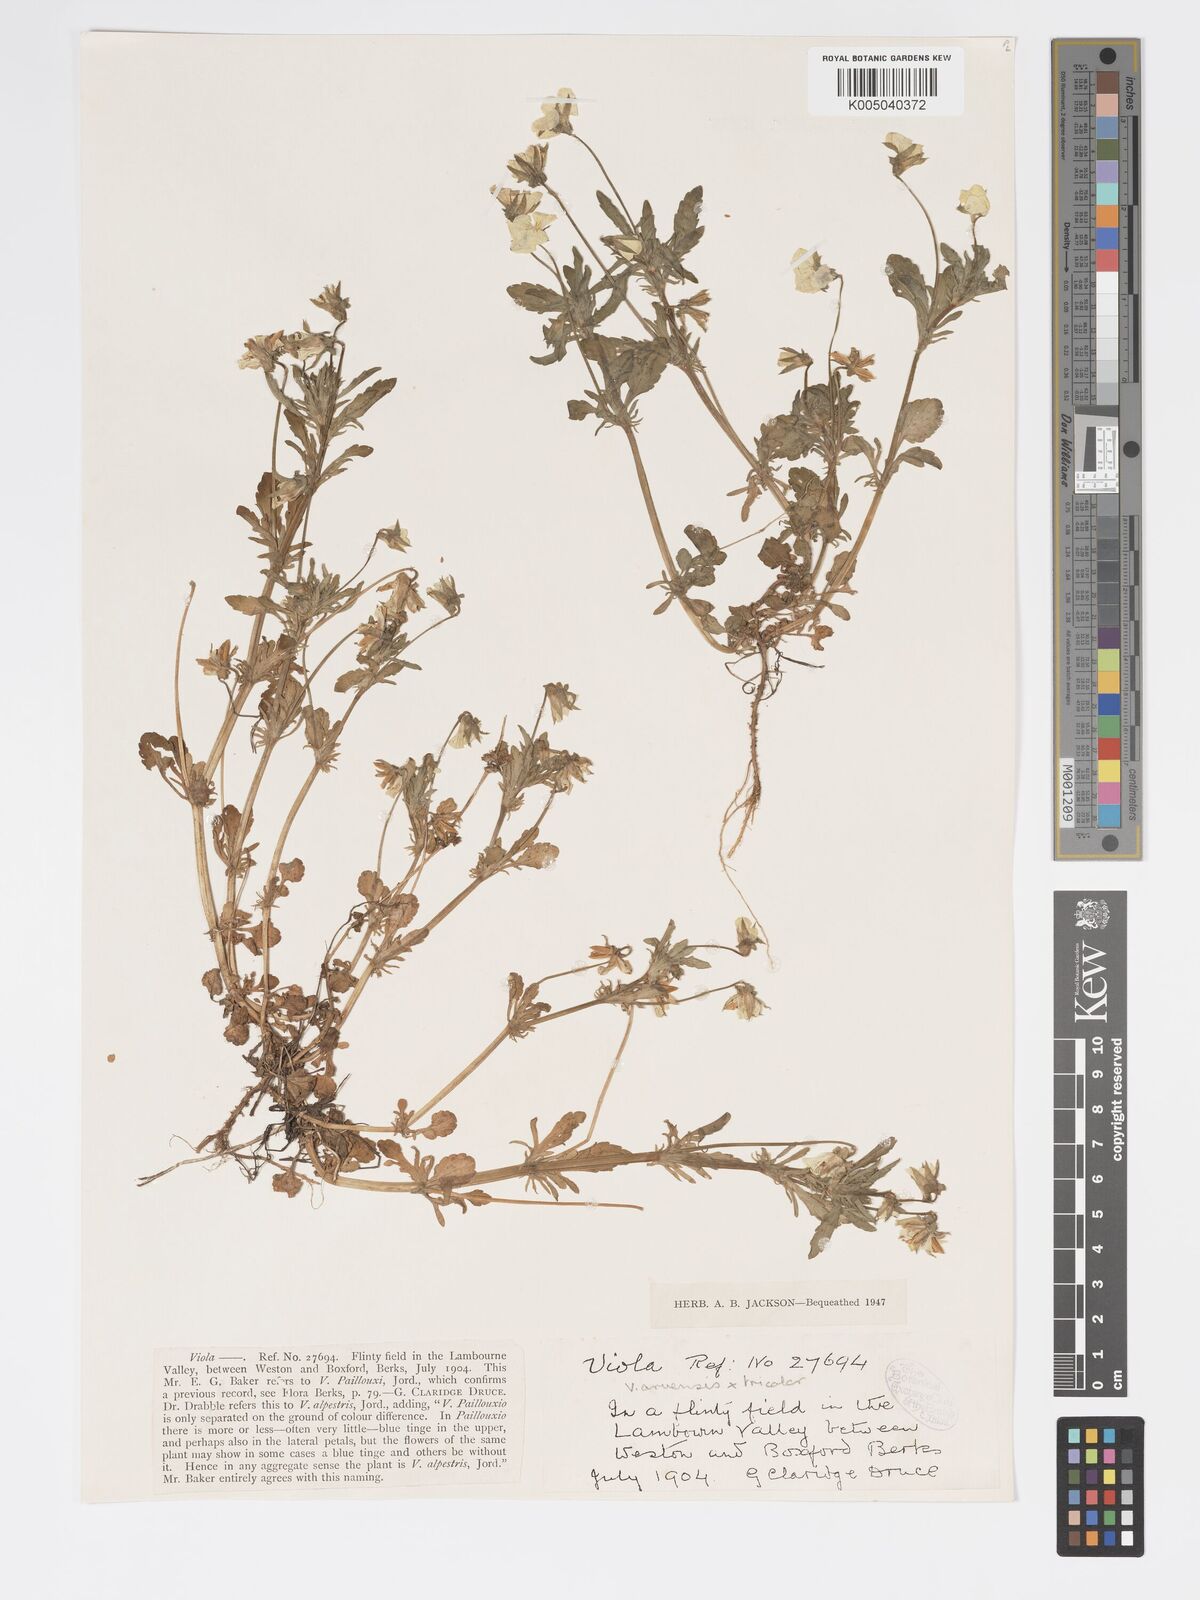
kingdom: Plantae
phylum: Tracheophyta
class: Magnoliopsida
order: Malpighiales
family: Violaceae
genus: Viola
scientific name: Viola arvensis
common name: Field pansy
